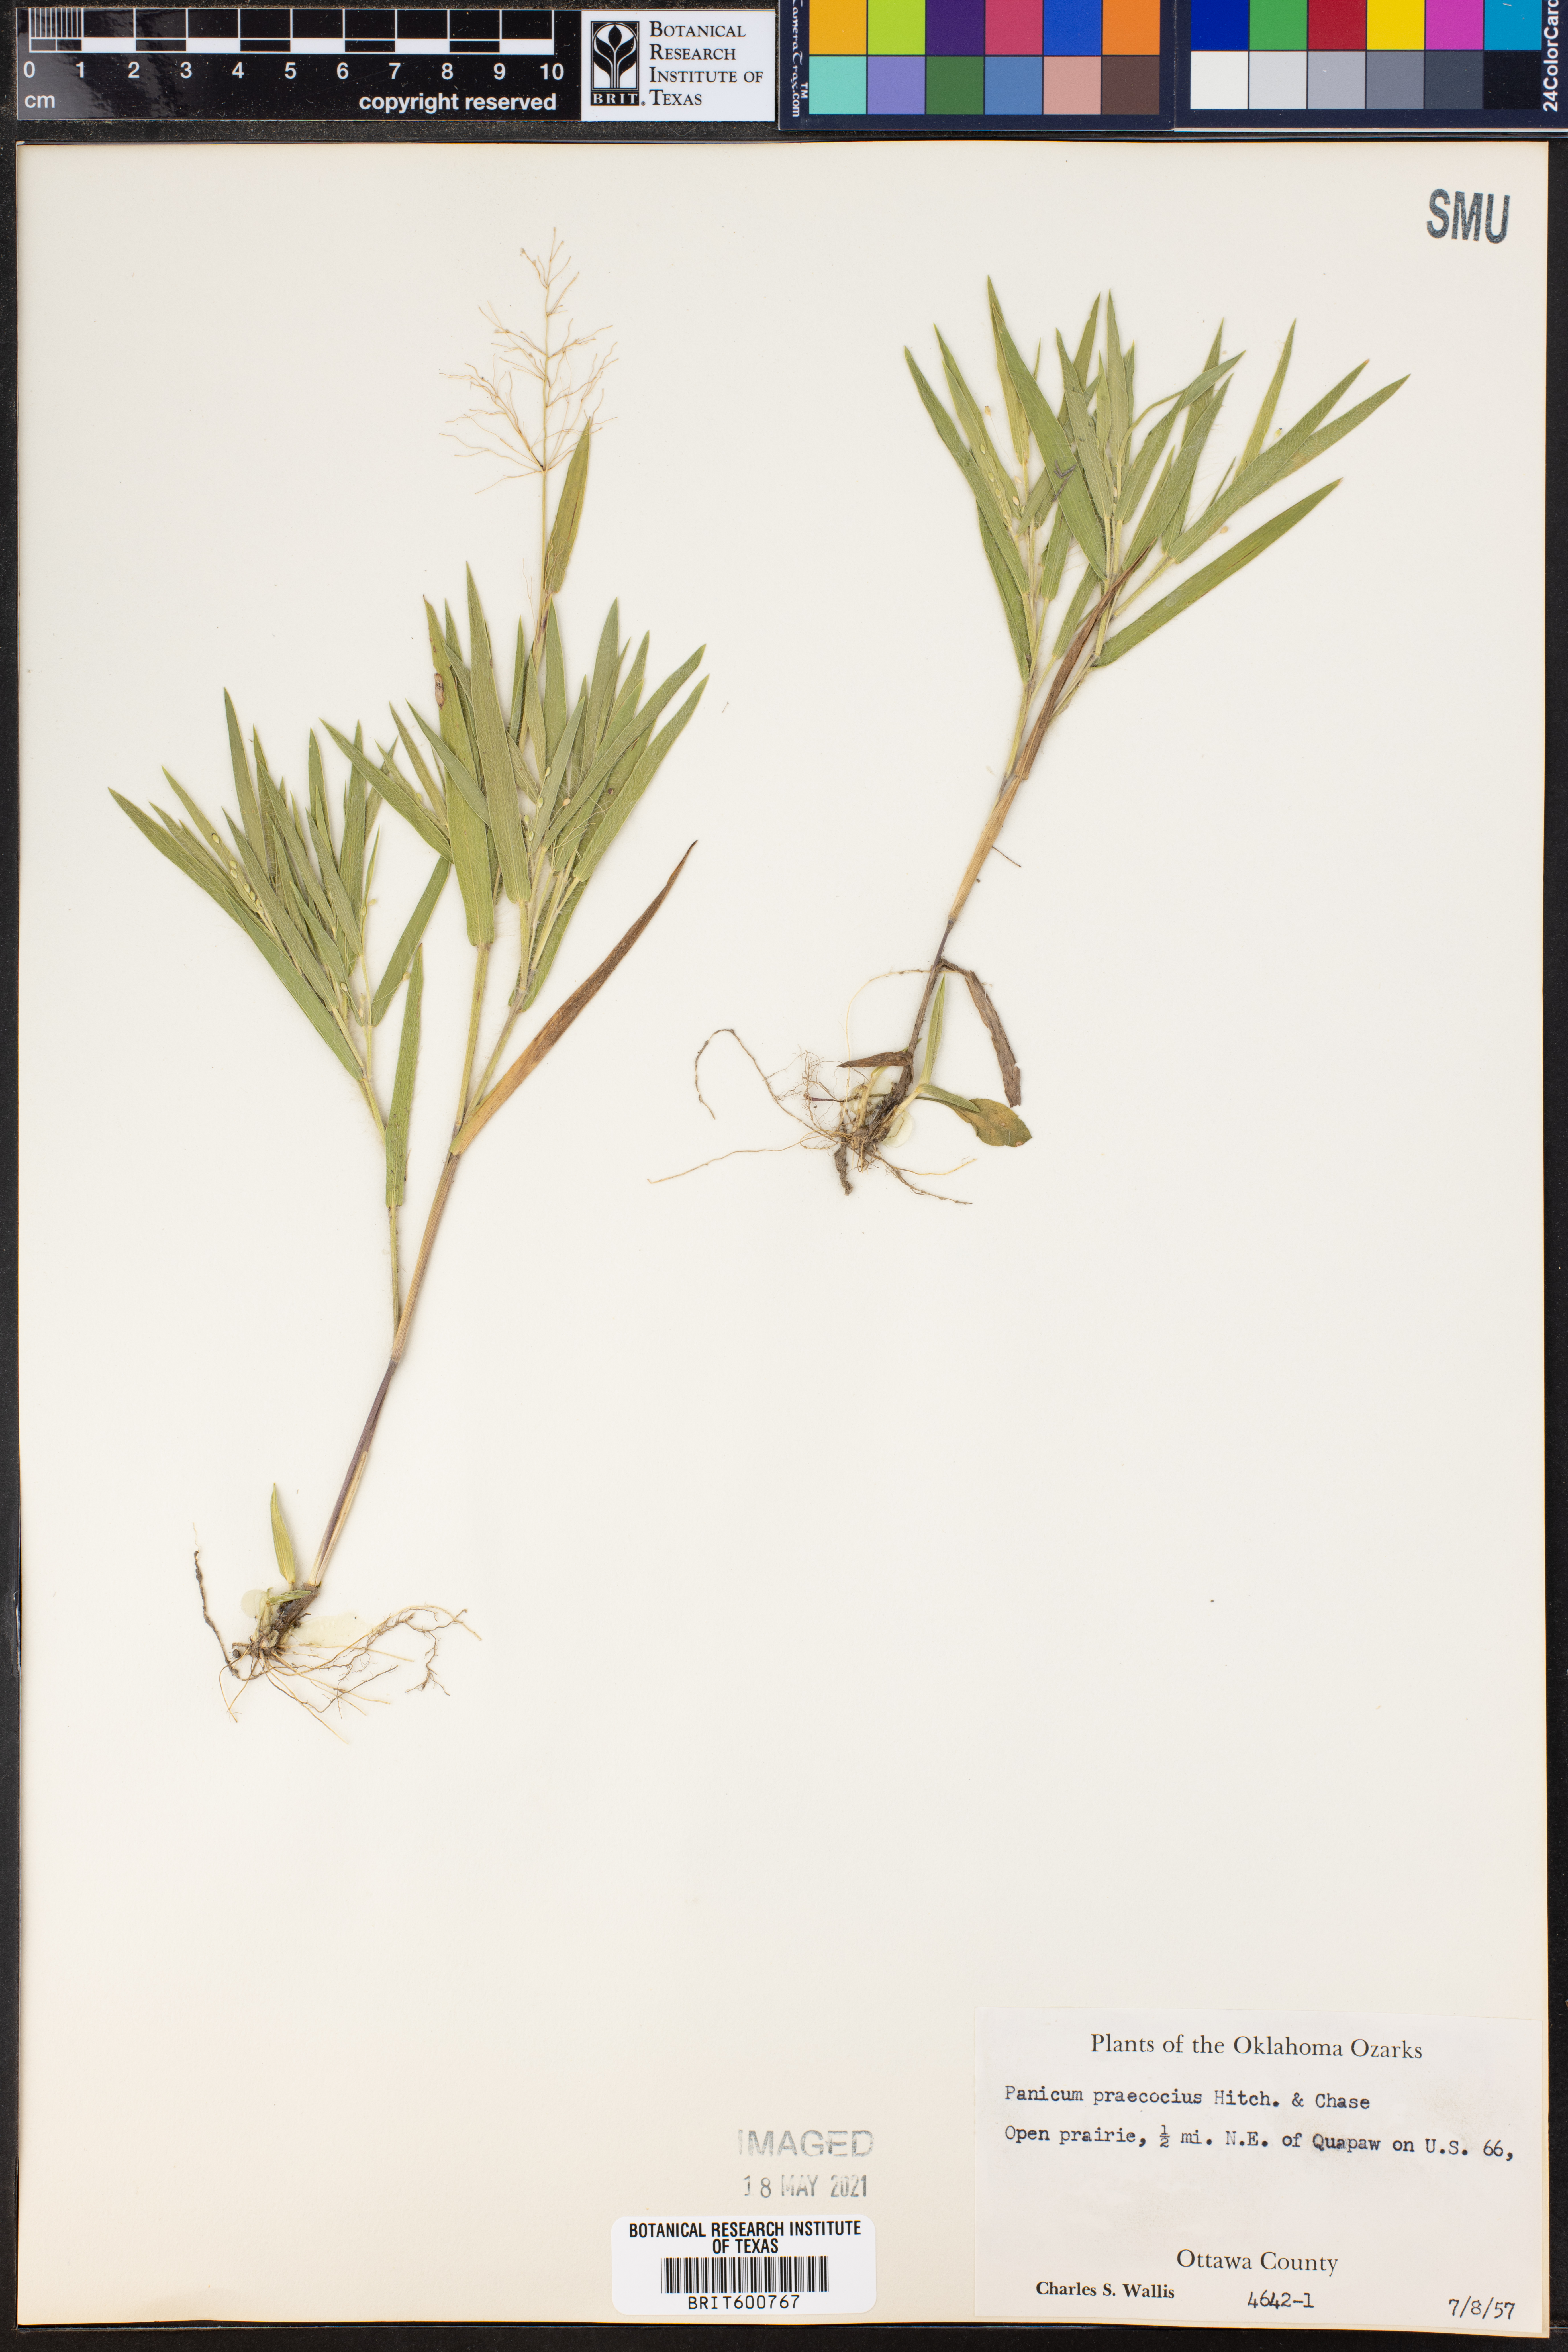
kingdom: Plantae
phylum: Tracheophyta
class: Liliopsida
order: Poales
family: Poaceae
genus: Dichanthelium
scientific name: Dichanthelium praecocius
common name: Early-branching panicgrass
